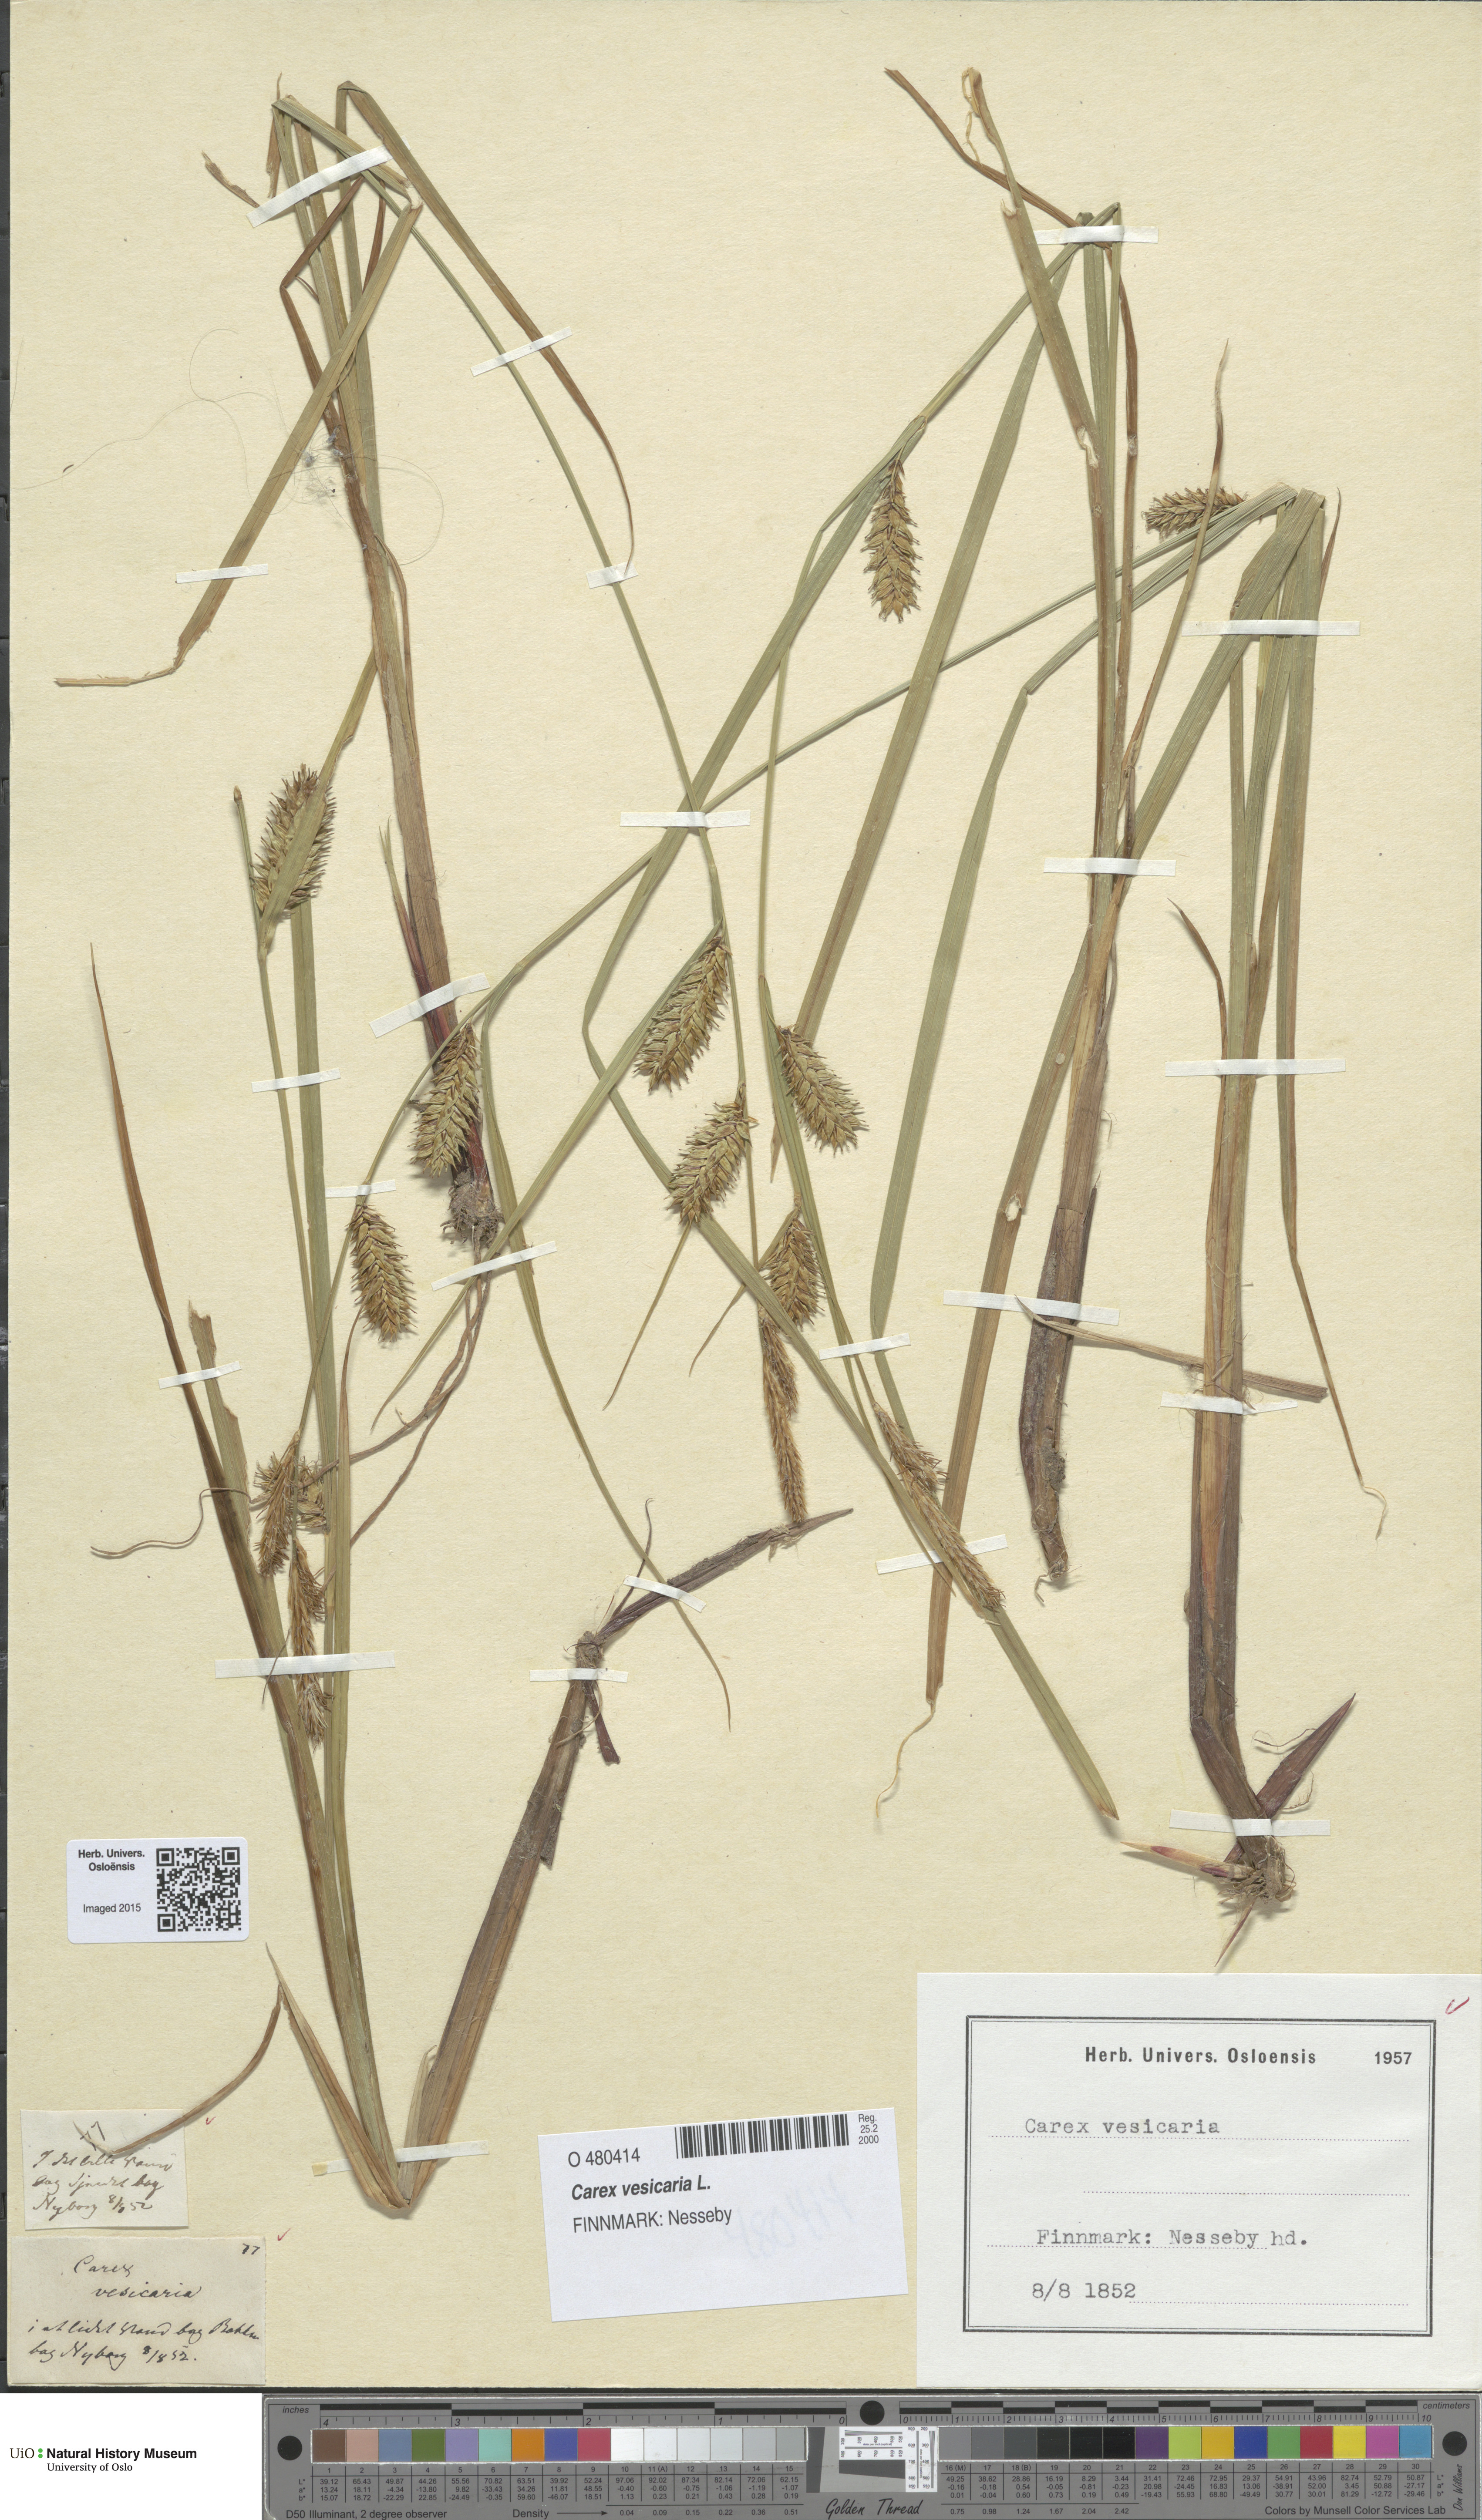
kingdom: Plantae
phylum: Tracheophyta
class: Liliopsida
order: Poales
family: Cyperaceae
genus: Carex
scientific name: Carex vesicaria
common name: Bladder-sedge
